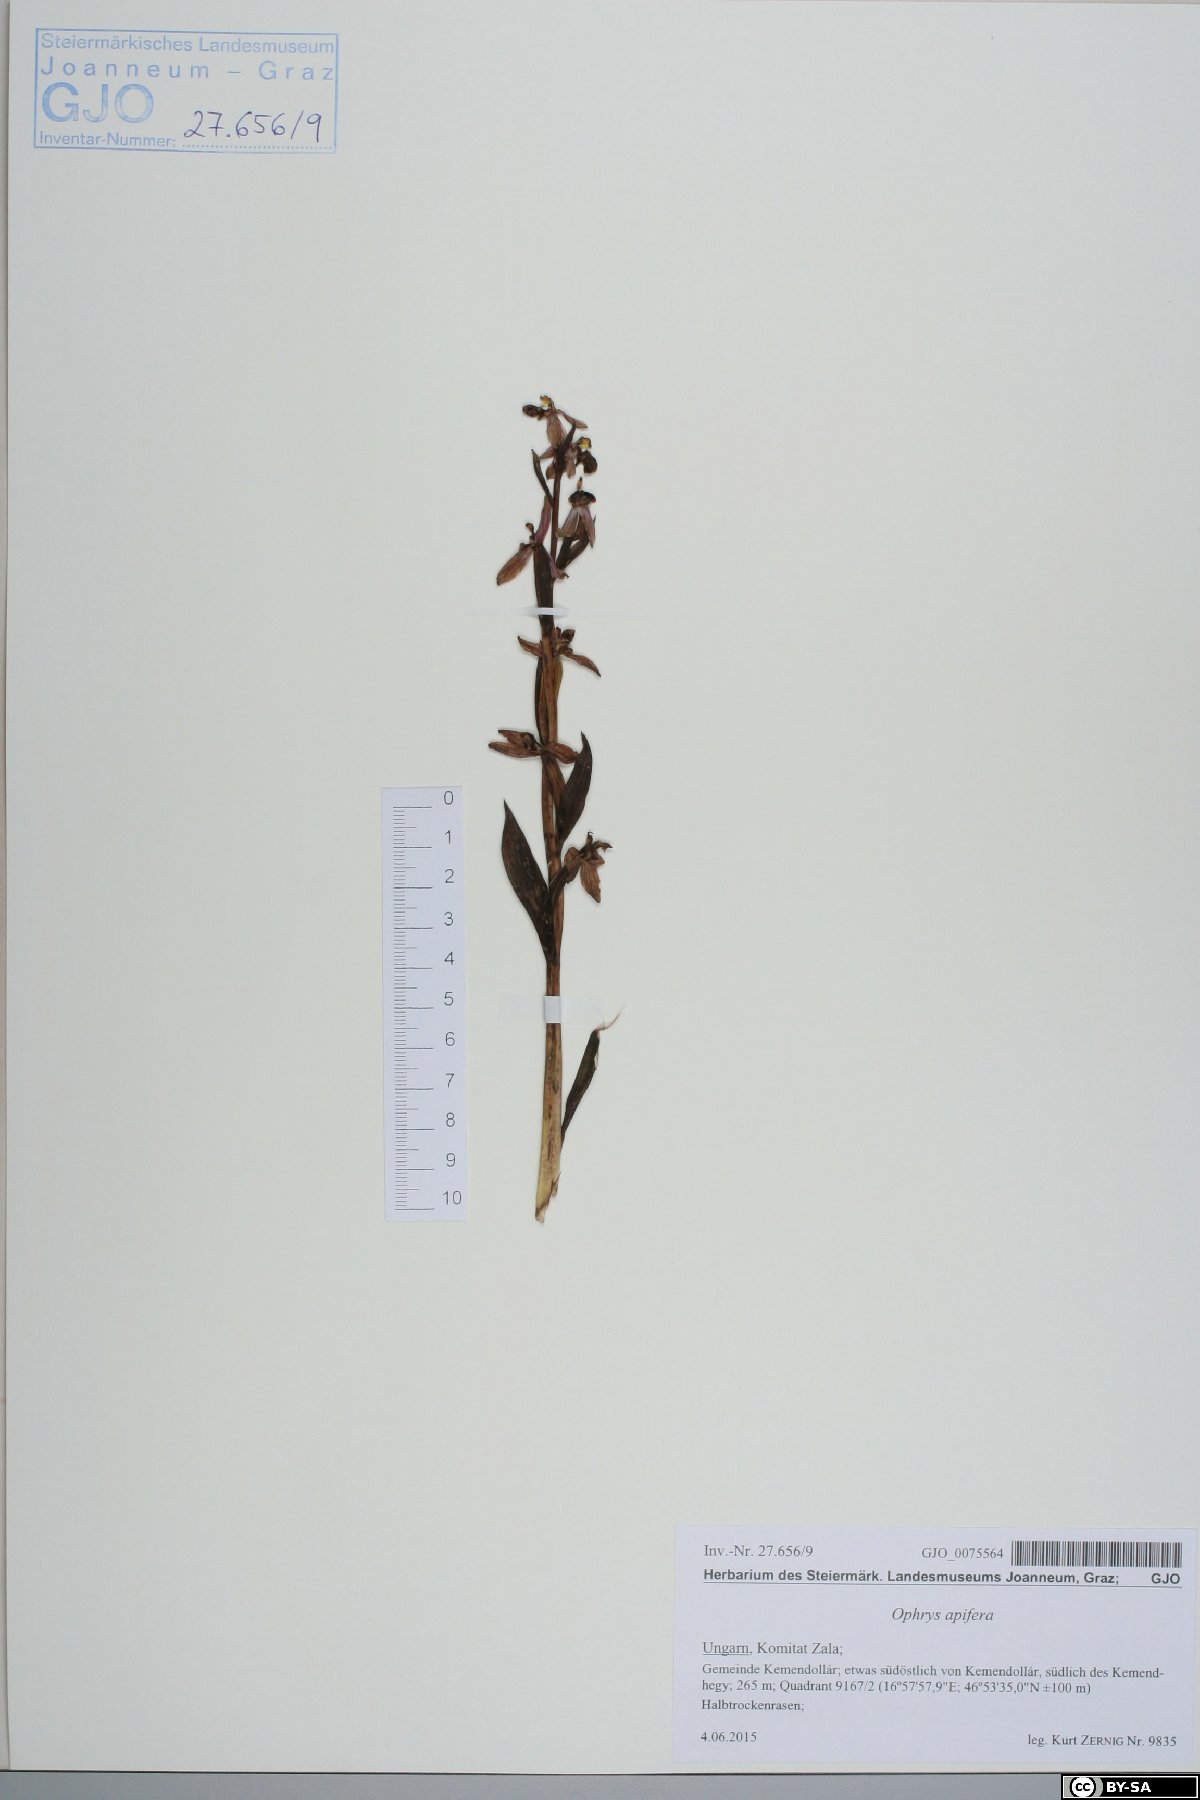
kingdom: Plantae
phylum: Tracheophyta
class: Liliopsida
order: Asparagales
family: Orchidaceae
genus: Ophrys
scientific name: Ophrys apifera
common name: Bee orchid
